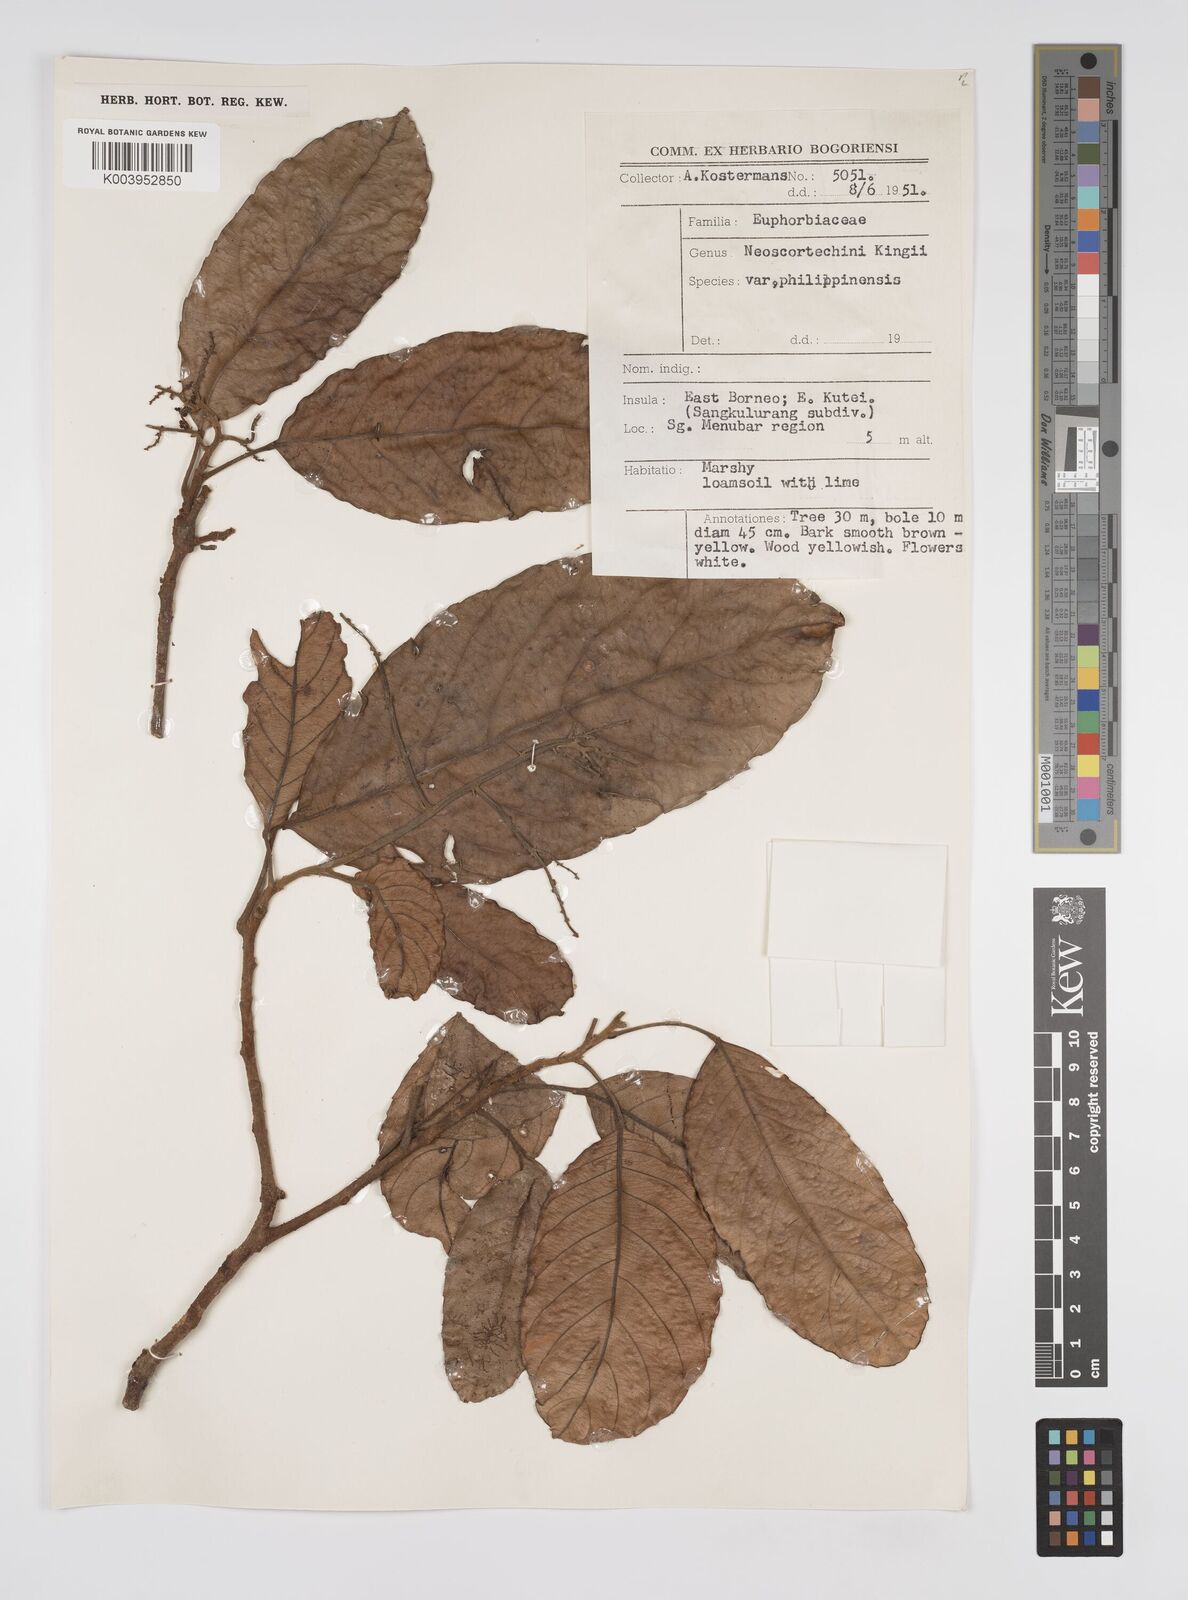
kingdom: Plantae
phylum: Tracheophyta
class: Magnoliopsida
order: Malpighiales
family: Euphorbiaceae
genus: Neoscortechinia
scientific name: Neoscortechinia nicobarica
